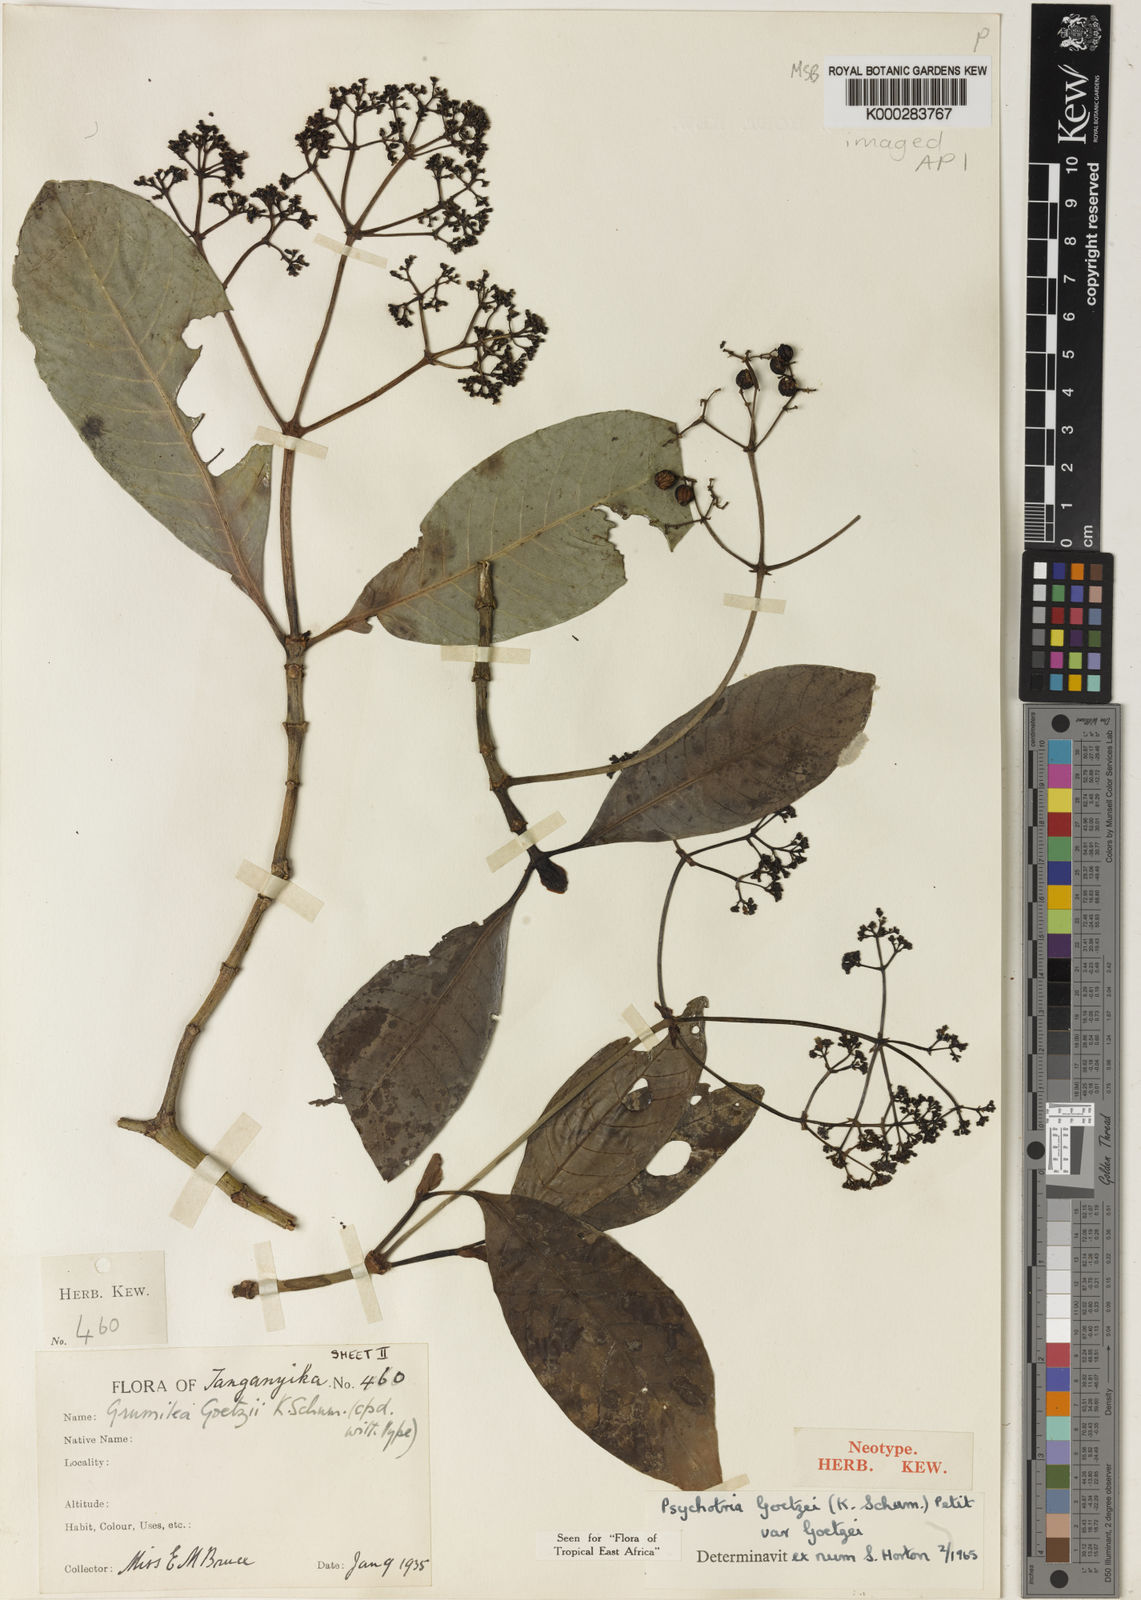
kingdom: Plantae
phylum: Tracheophyta
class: Magnoliopsida
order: Gentianales
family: Rubiaceae
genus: Psychotria
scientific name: Psychotria goetzei
